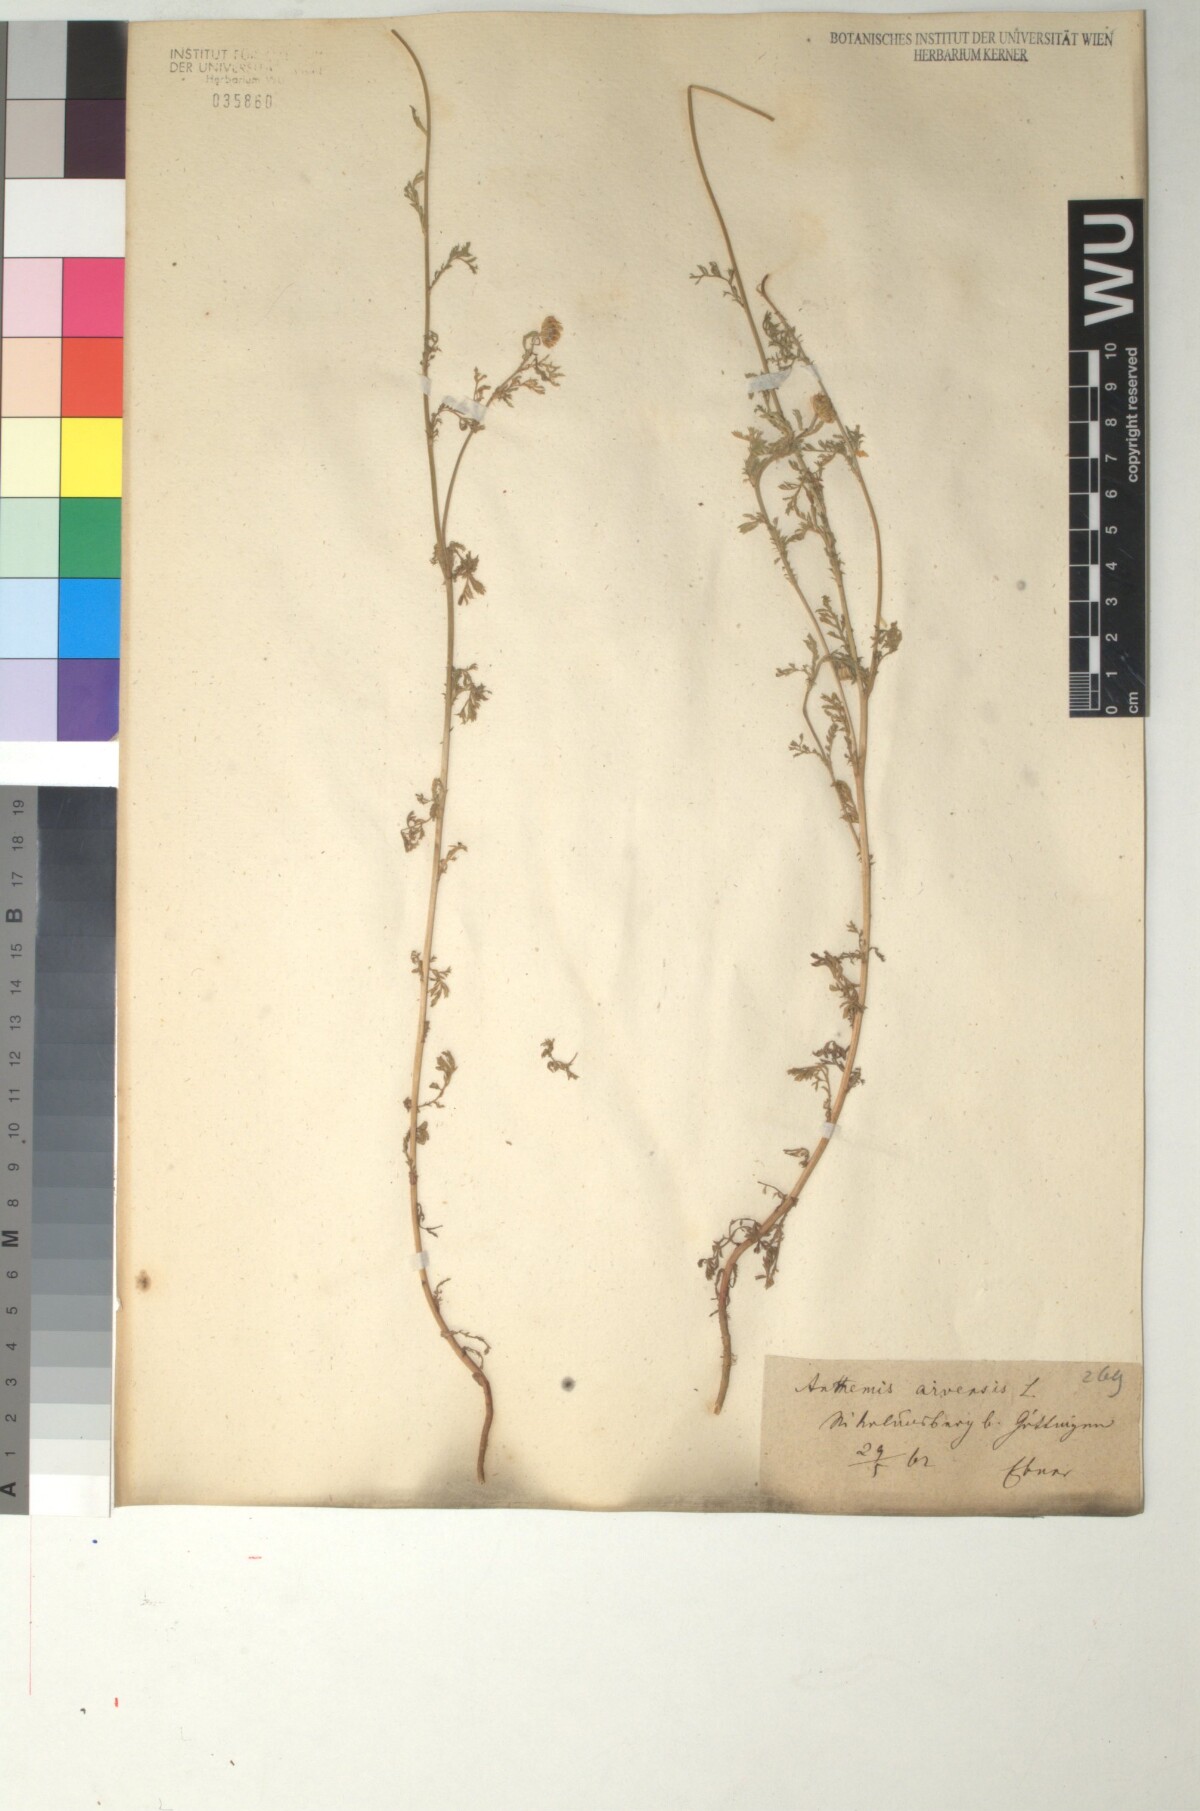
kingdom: Plantae
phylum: Tracheophyta
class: Magnoliopsida
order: Asterales
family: Asteraceae
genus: Anthemis
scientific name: Anthemis arvensis
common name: Corn chamomile
